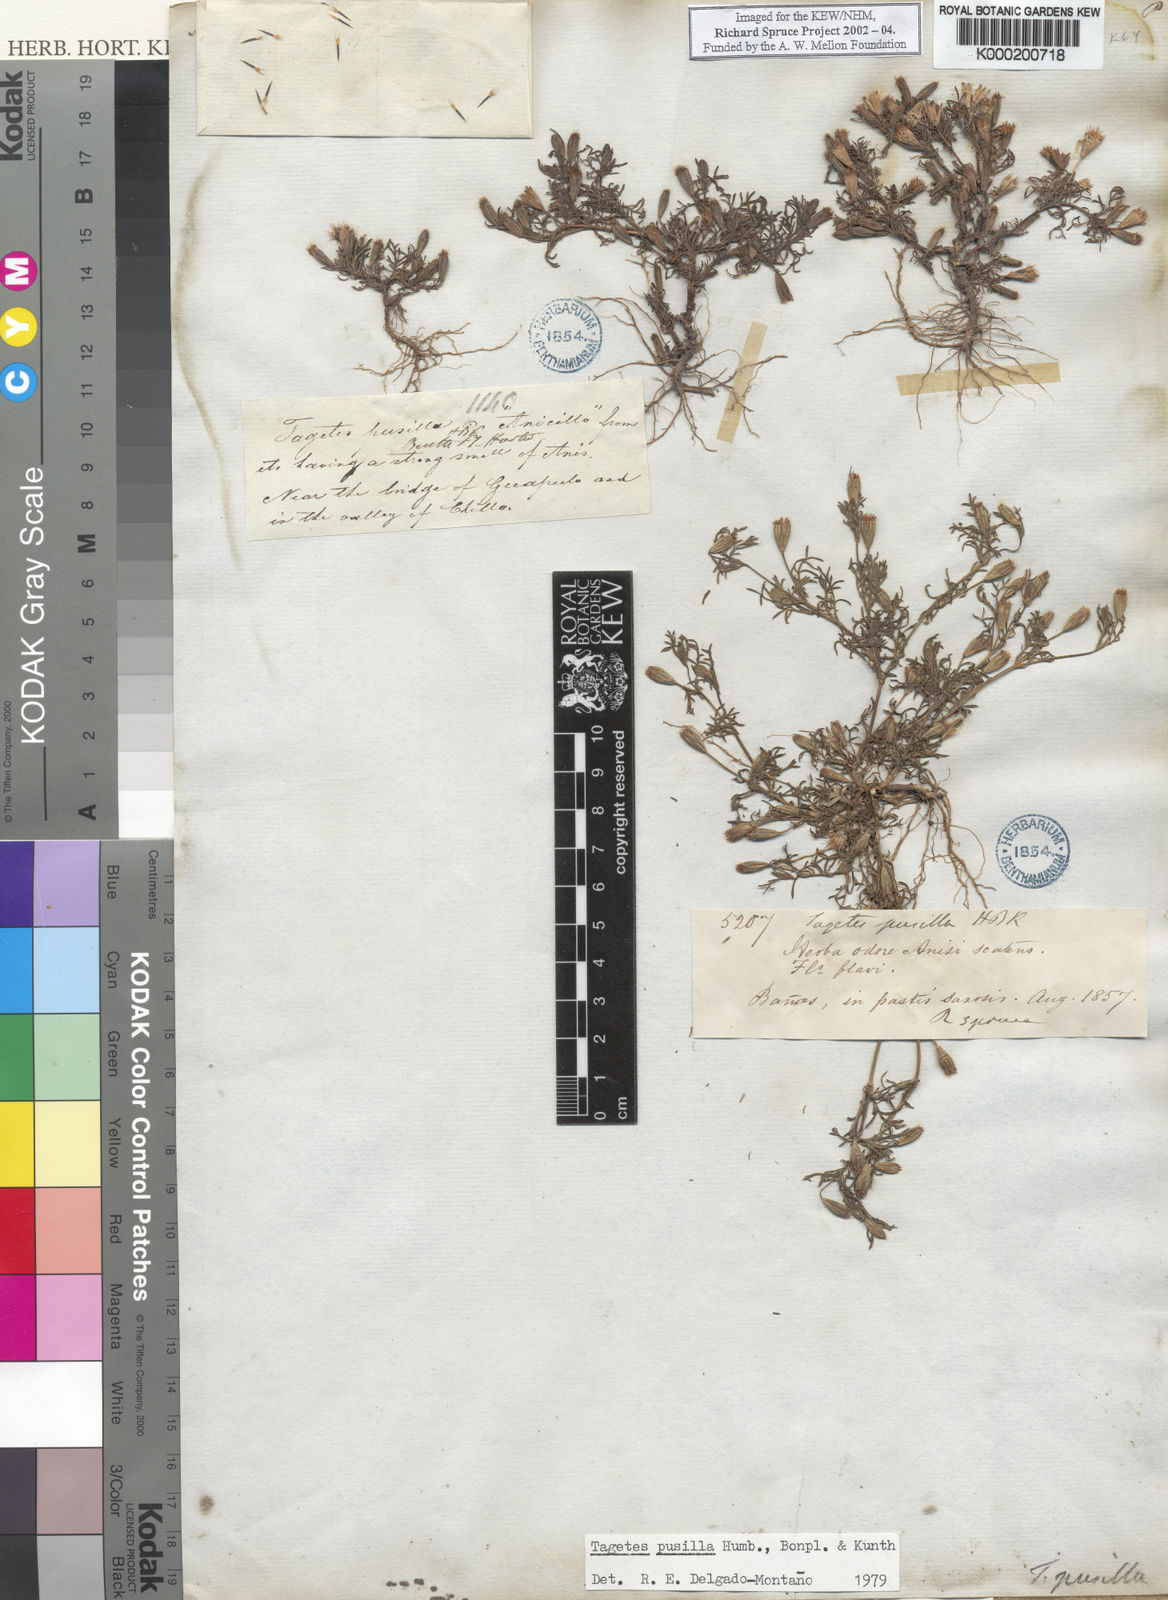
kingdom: Plantae
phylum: Tracheophyta
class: Magnoliopsida
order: Asterales
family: Asteraceae
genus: Tagetes
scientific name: Tagetes
